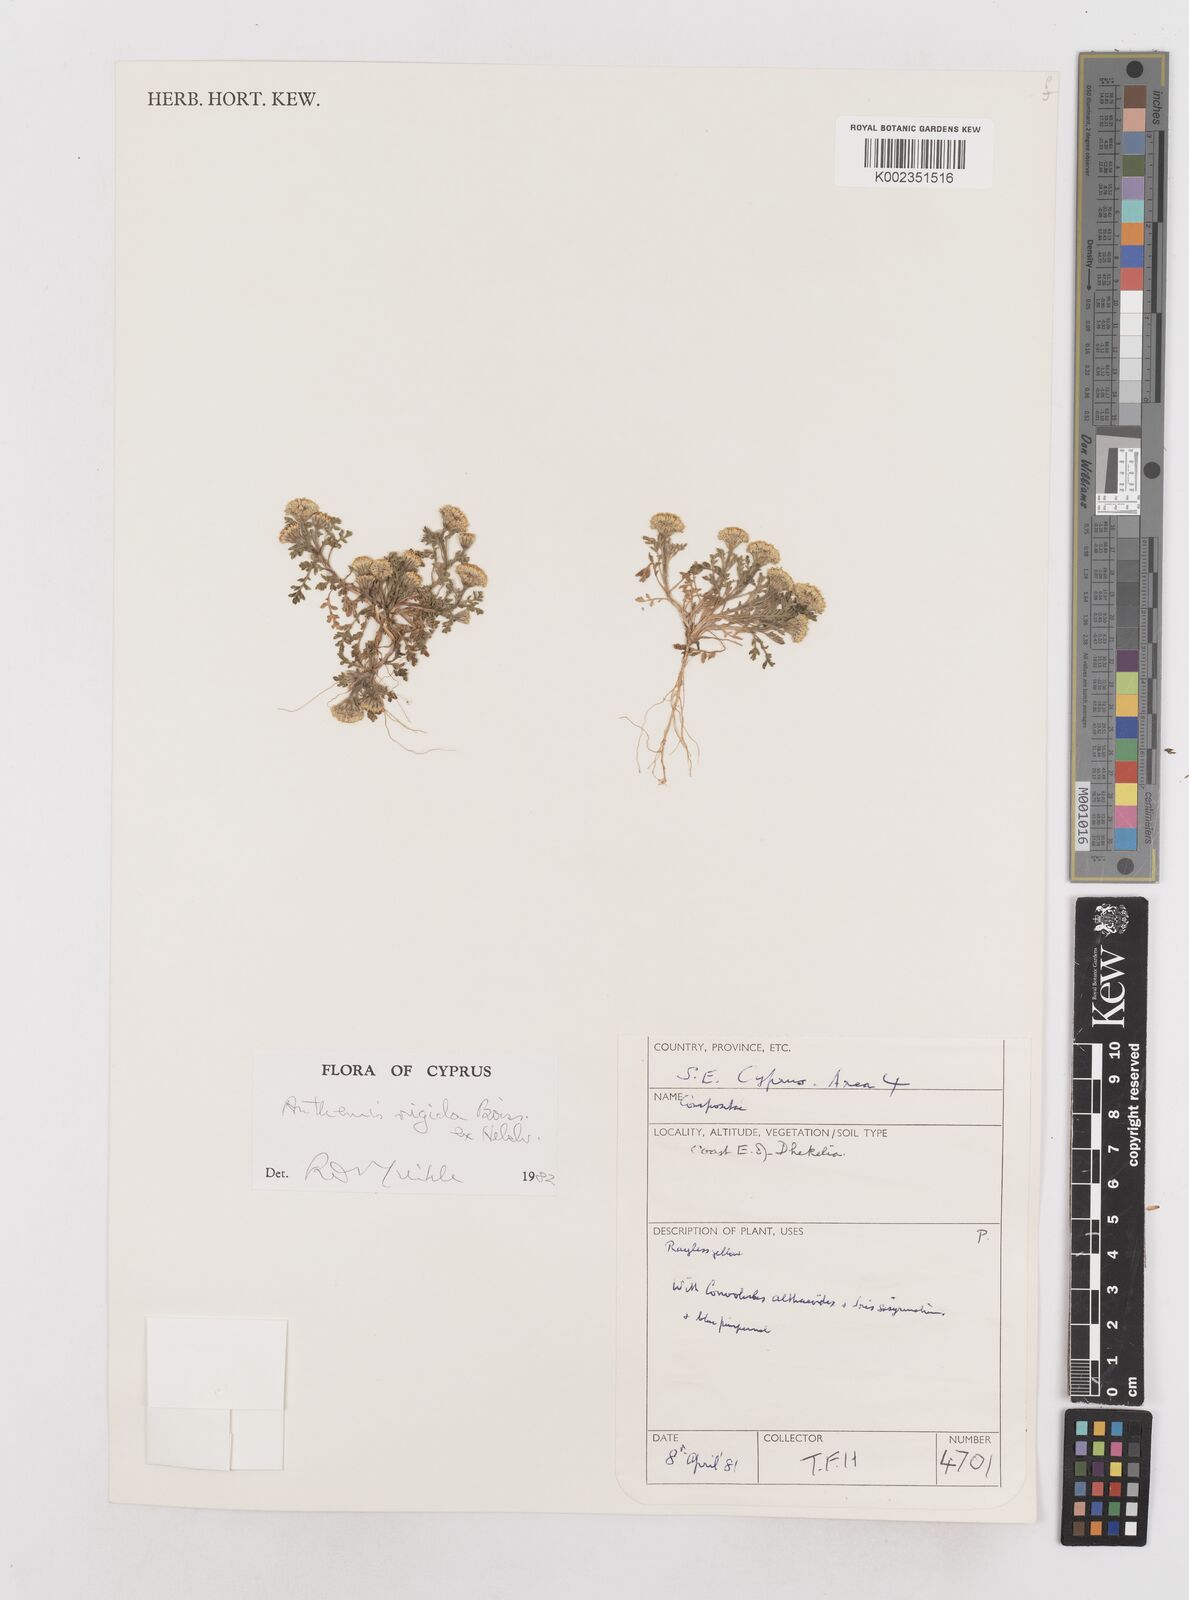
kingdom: Plantae
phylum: Tracheophyta
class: Magnoliopsida
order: Asterales
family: Asteraceae
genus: Anthemis
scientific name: Anthemis rigida
